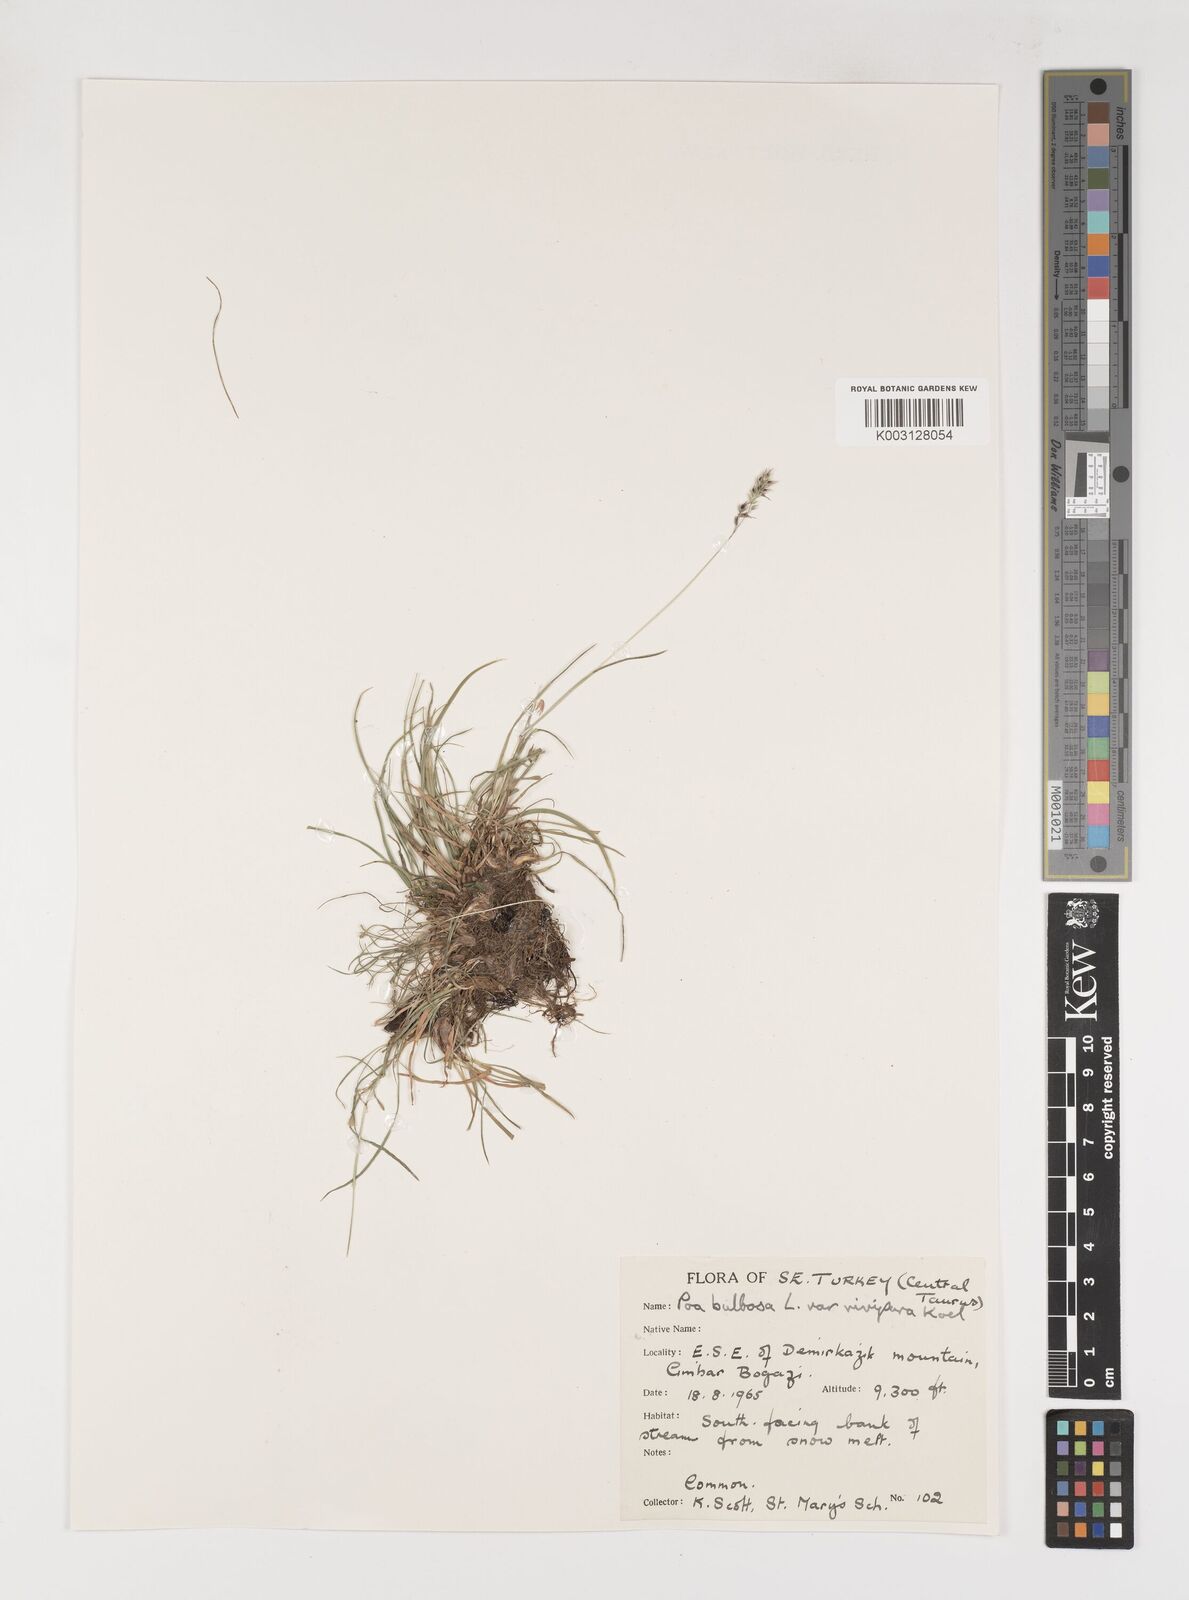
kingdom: Plantae
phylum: Tracheophyta
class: Liliopsida
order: Poales
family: Poaceae
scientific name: Poaceae
